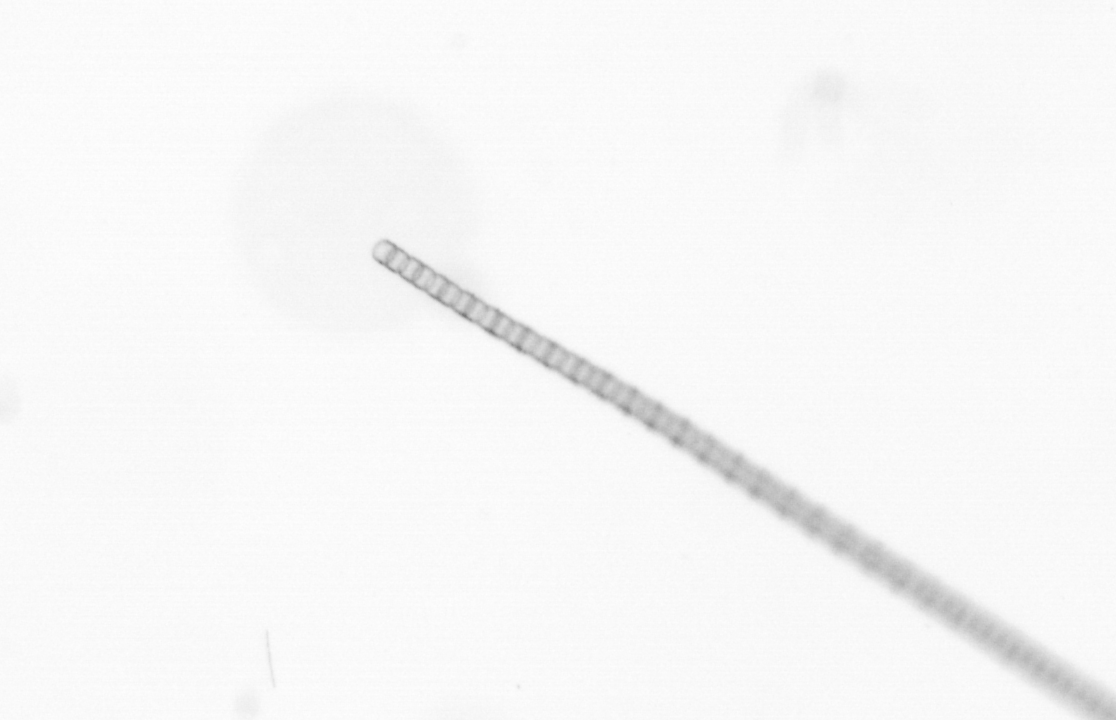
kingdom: Chromista
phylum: Ochrophyta
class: Bacillariophyceae
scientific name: Bacillariophyceae
